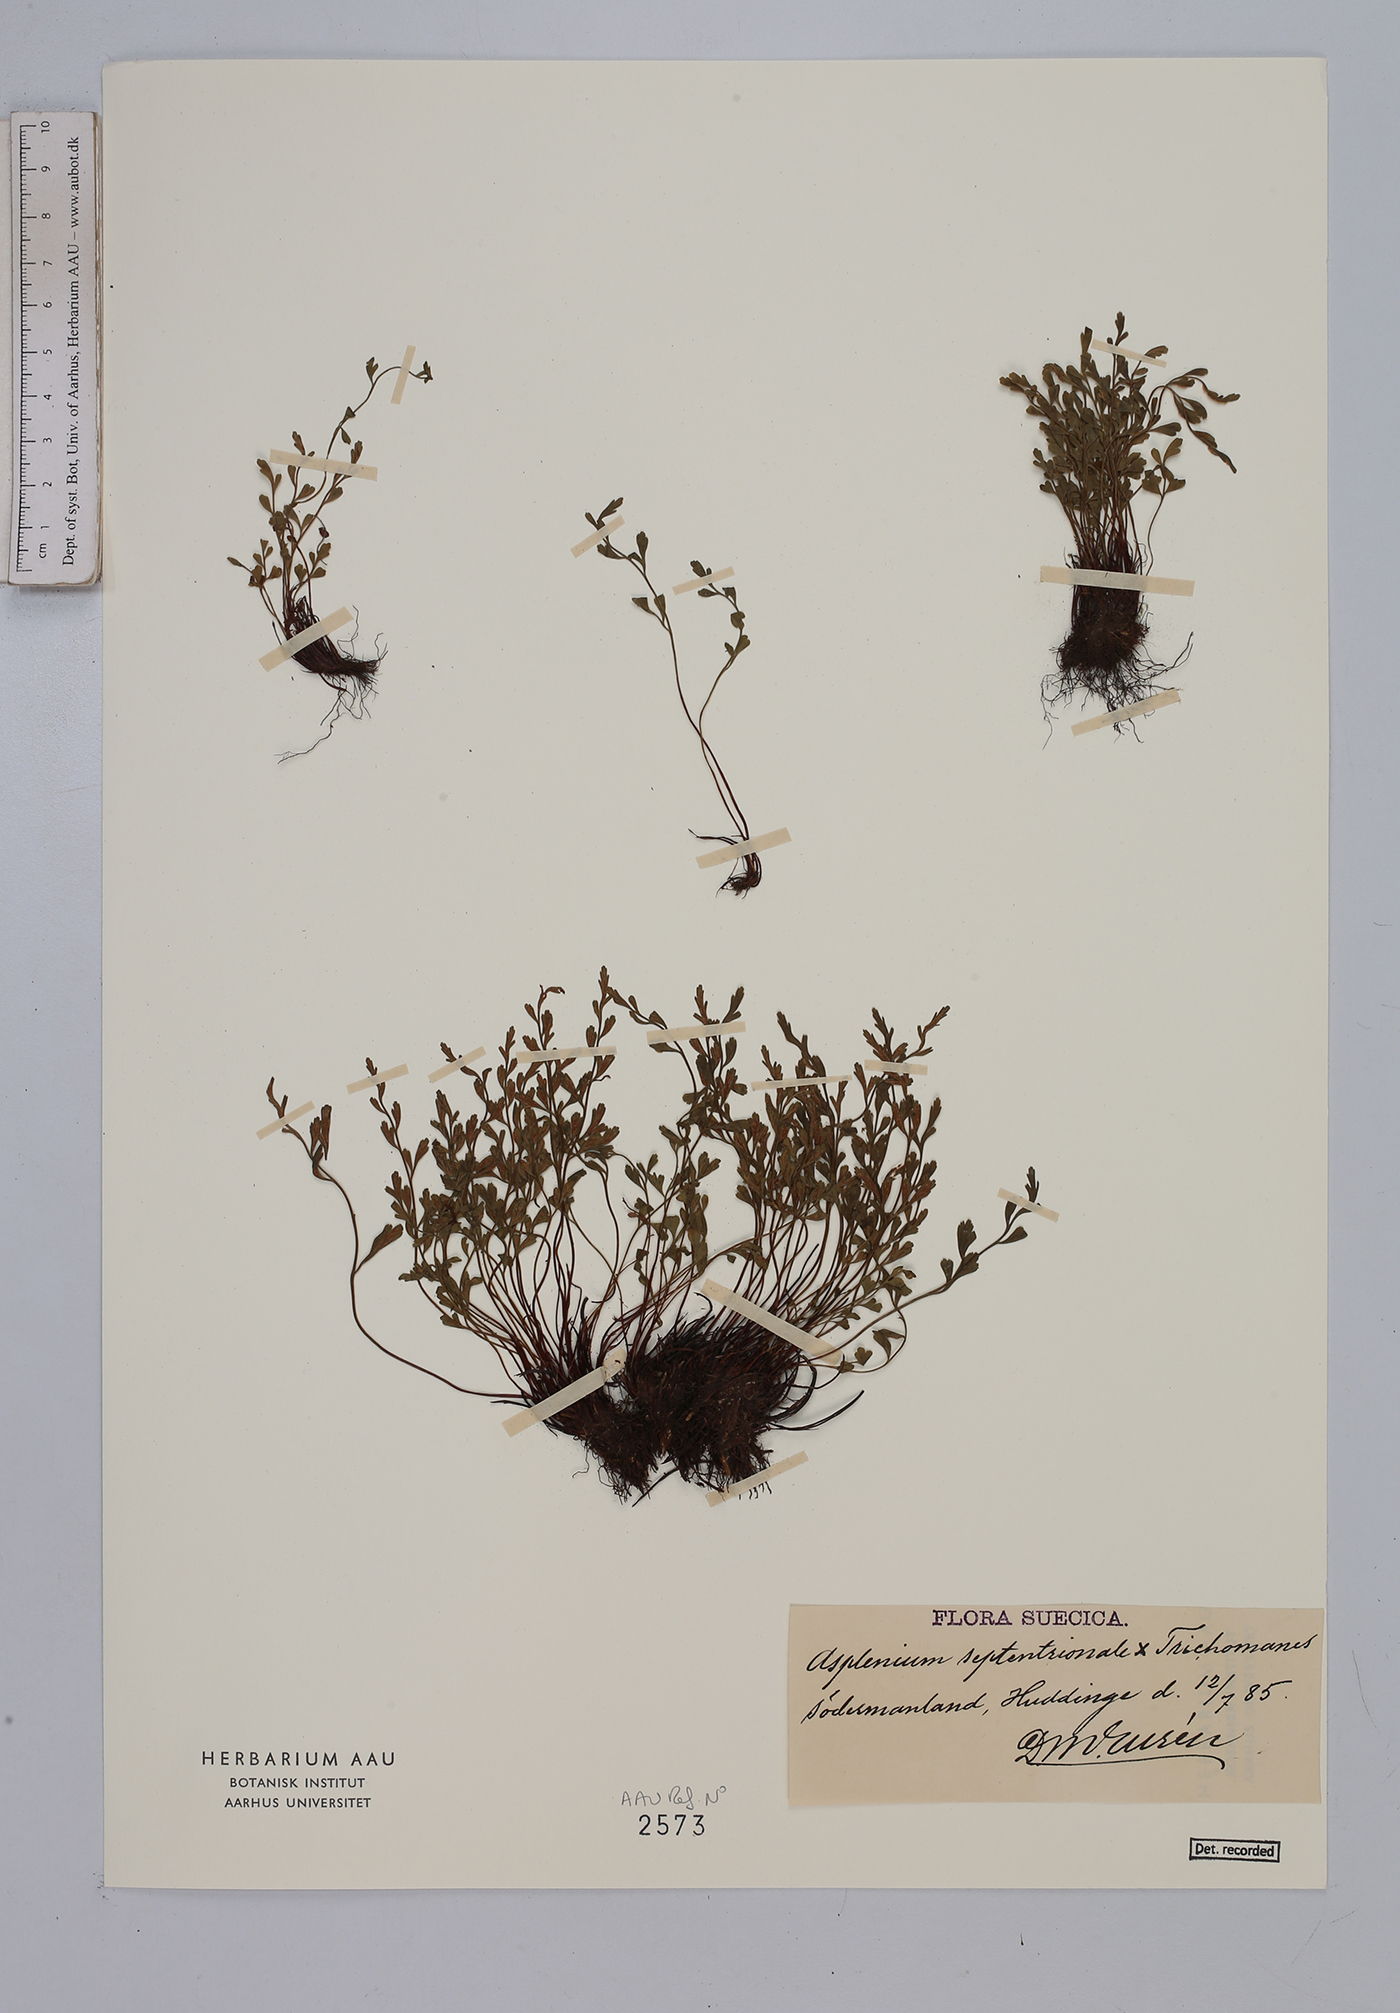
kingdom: Plantae
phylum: Tracheophyta
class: Polypodiopsida
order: Polypodiales
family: Aspleniaceae
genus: Asplenium
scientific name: Asplenium
